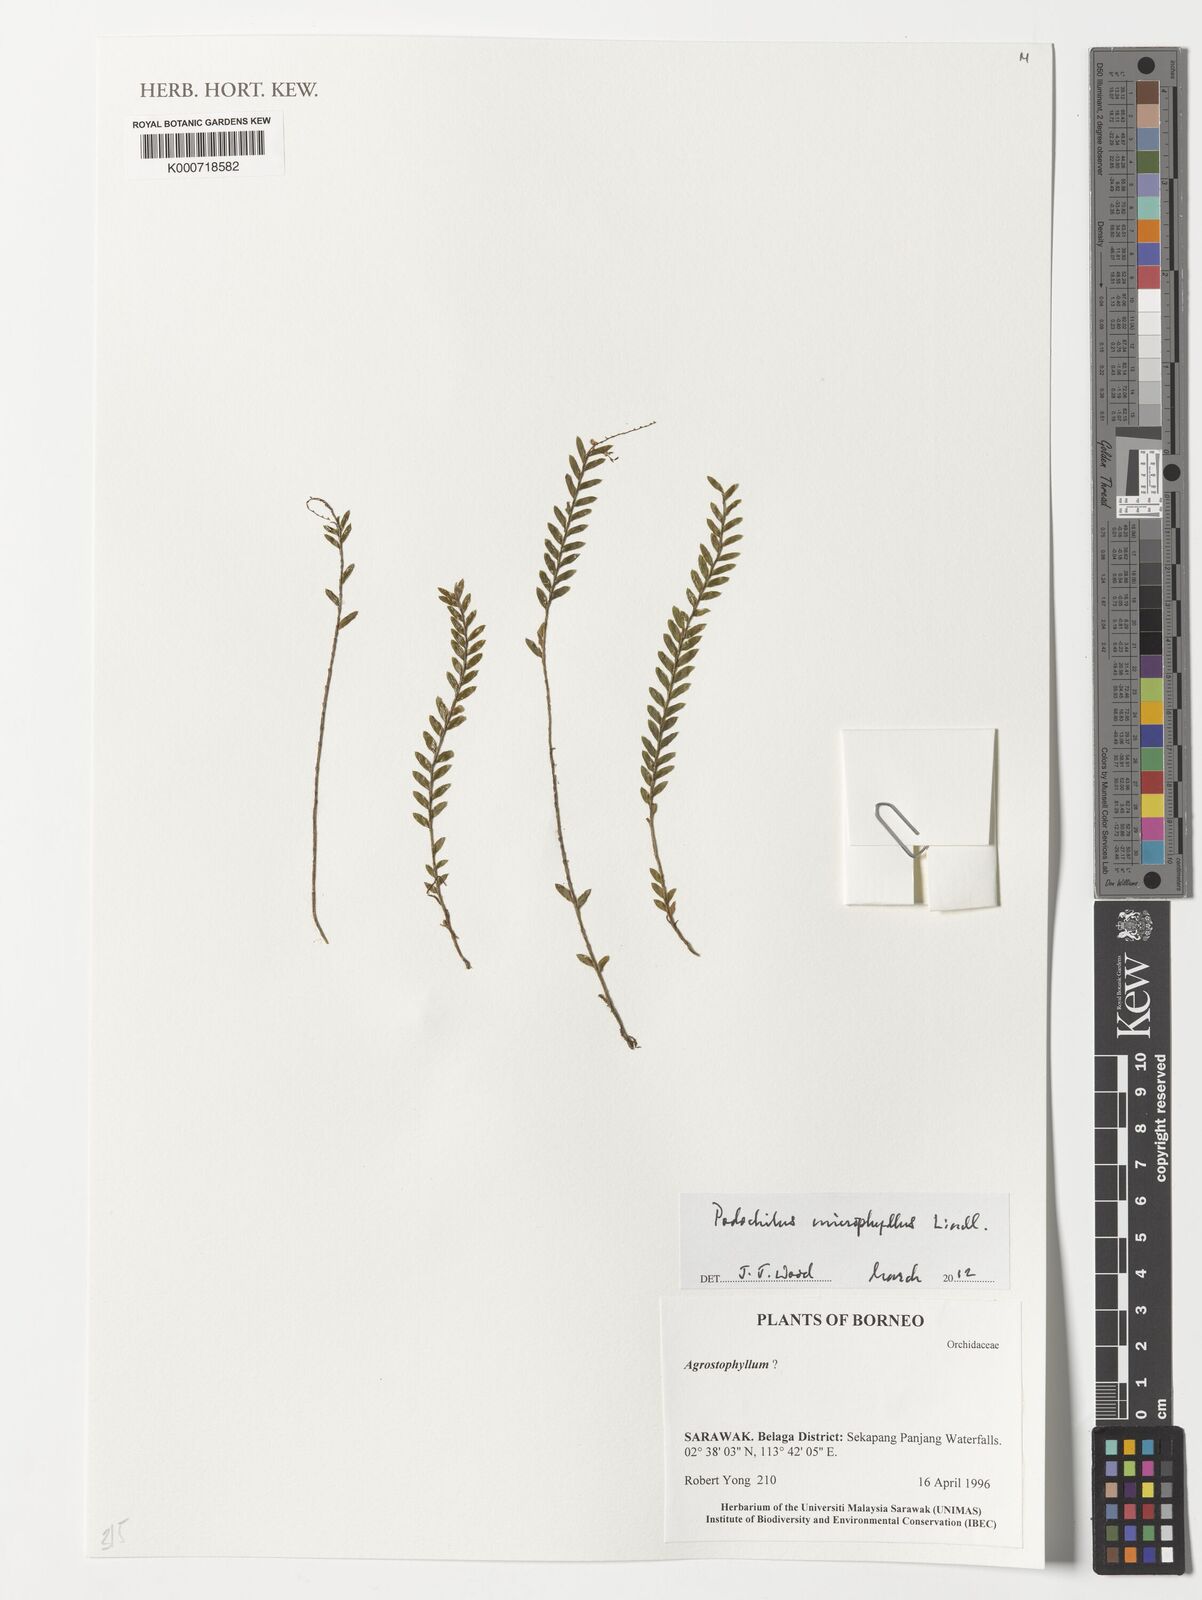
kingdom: Plantae
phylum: Tracheophyta
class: Liliopsida
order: Asparagales
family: Orchidaceae
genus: Podochilus
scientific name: Podochilus microphyllus
